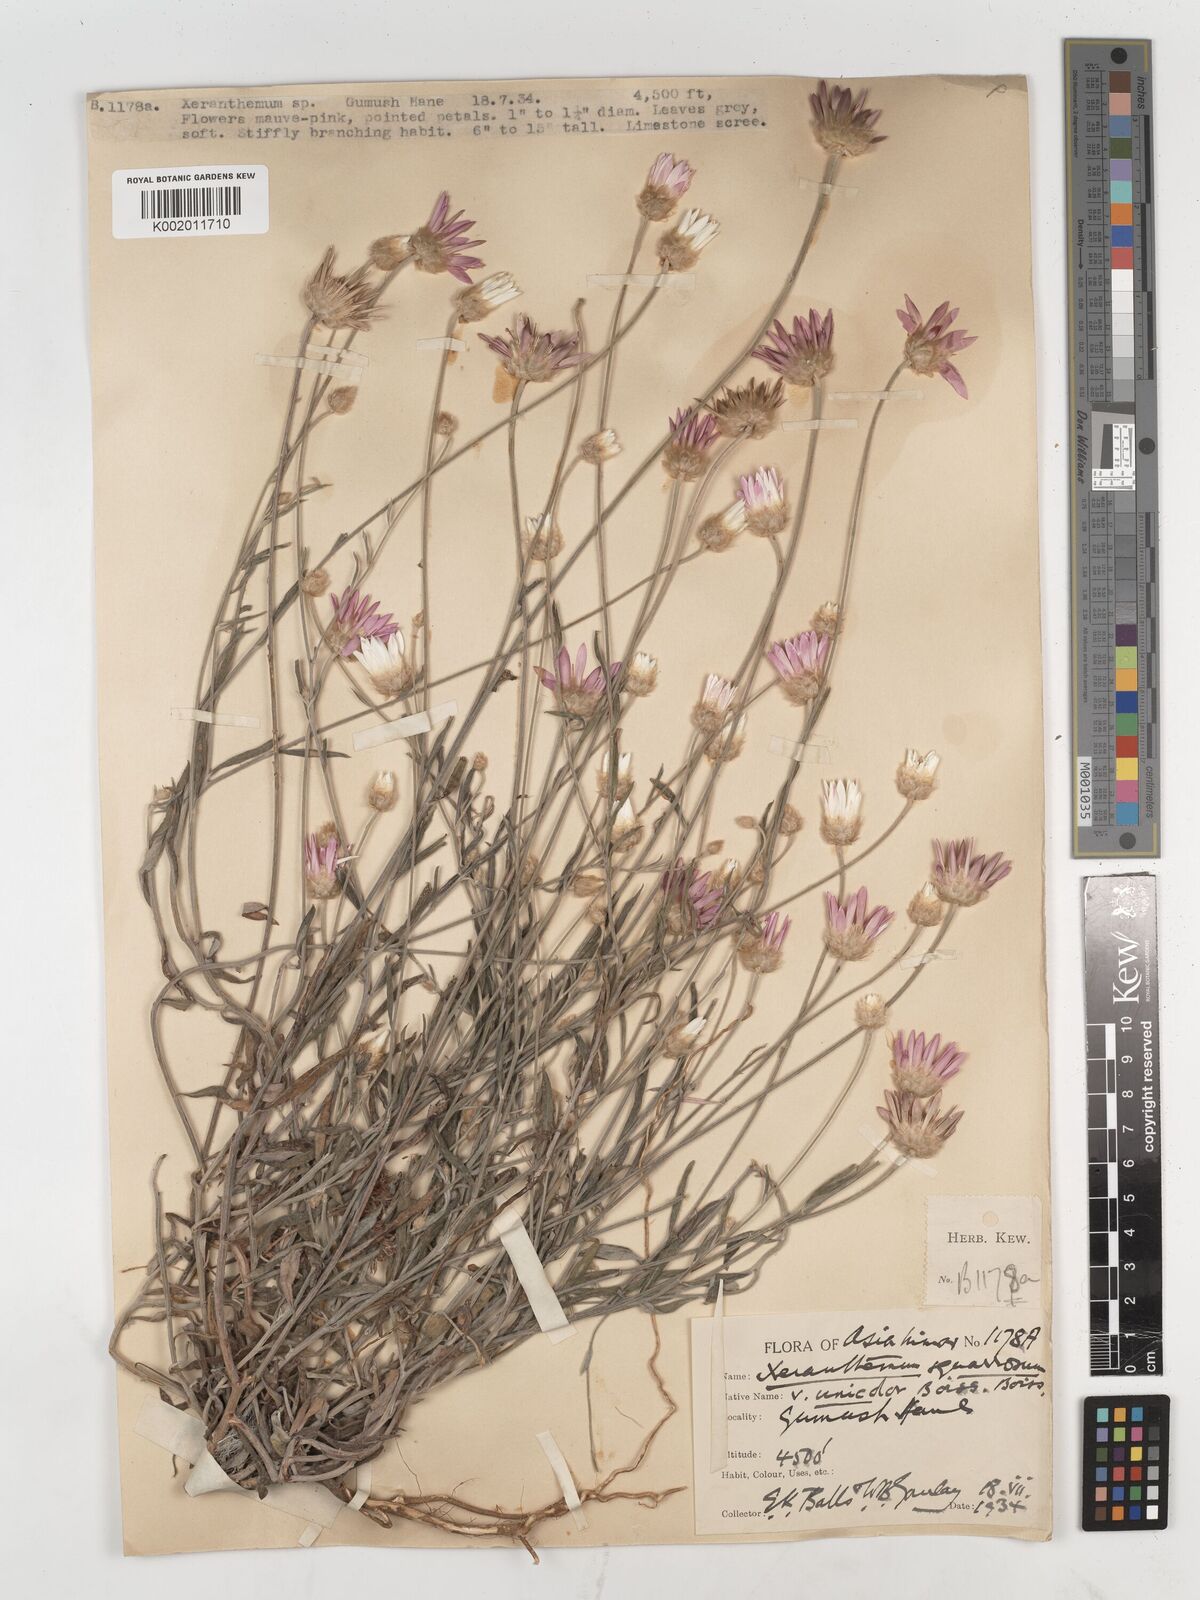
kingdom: Plantae
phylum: Tracheophyta
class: Magnoliopsida
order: Asterales
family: Asteraceae
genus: Xeranthemum
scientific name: Xeranthemum squarrosum
